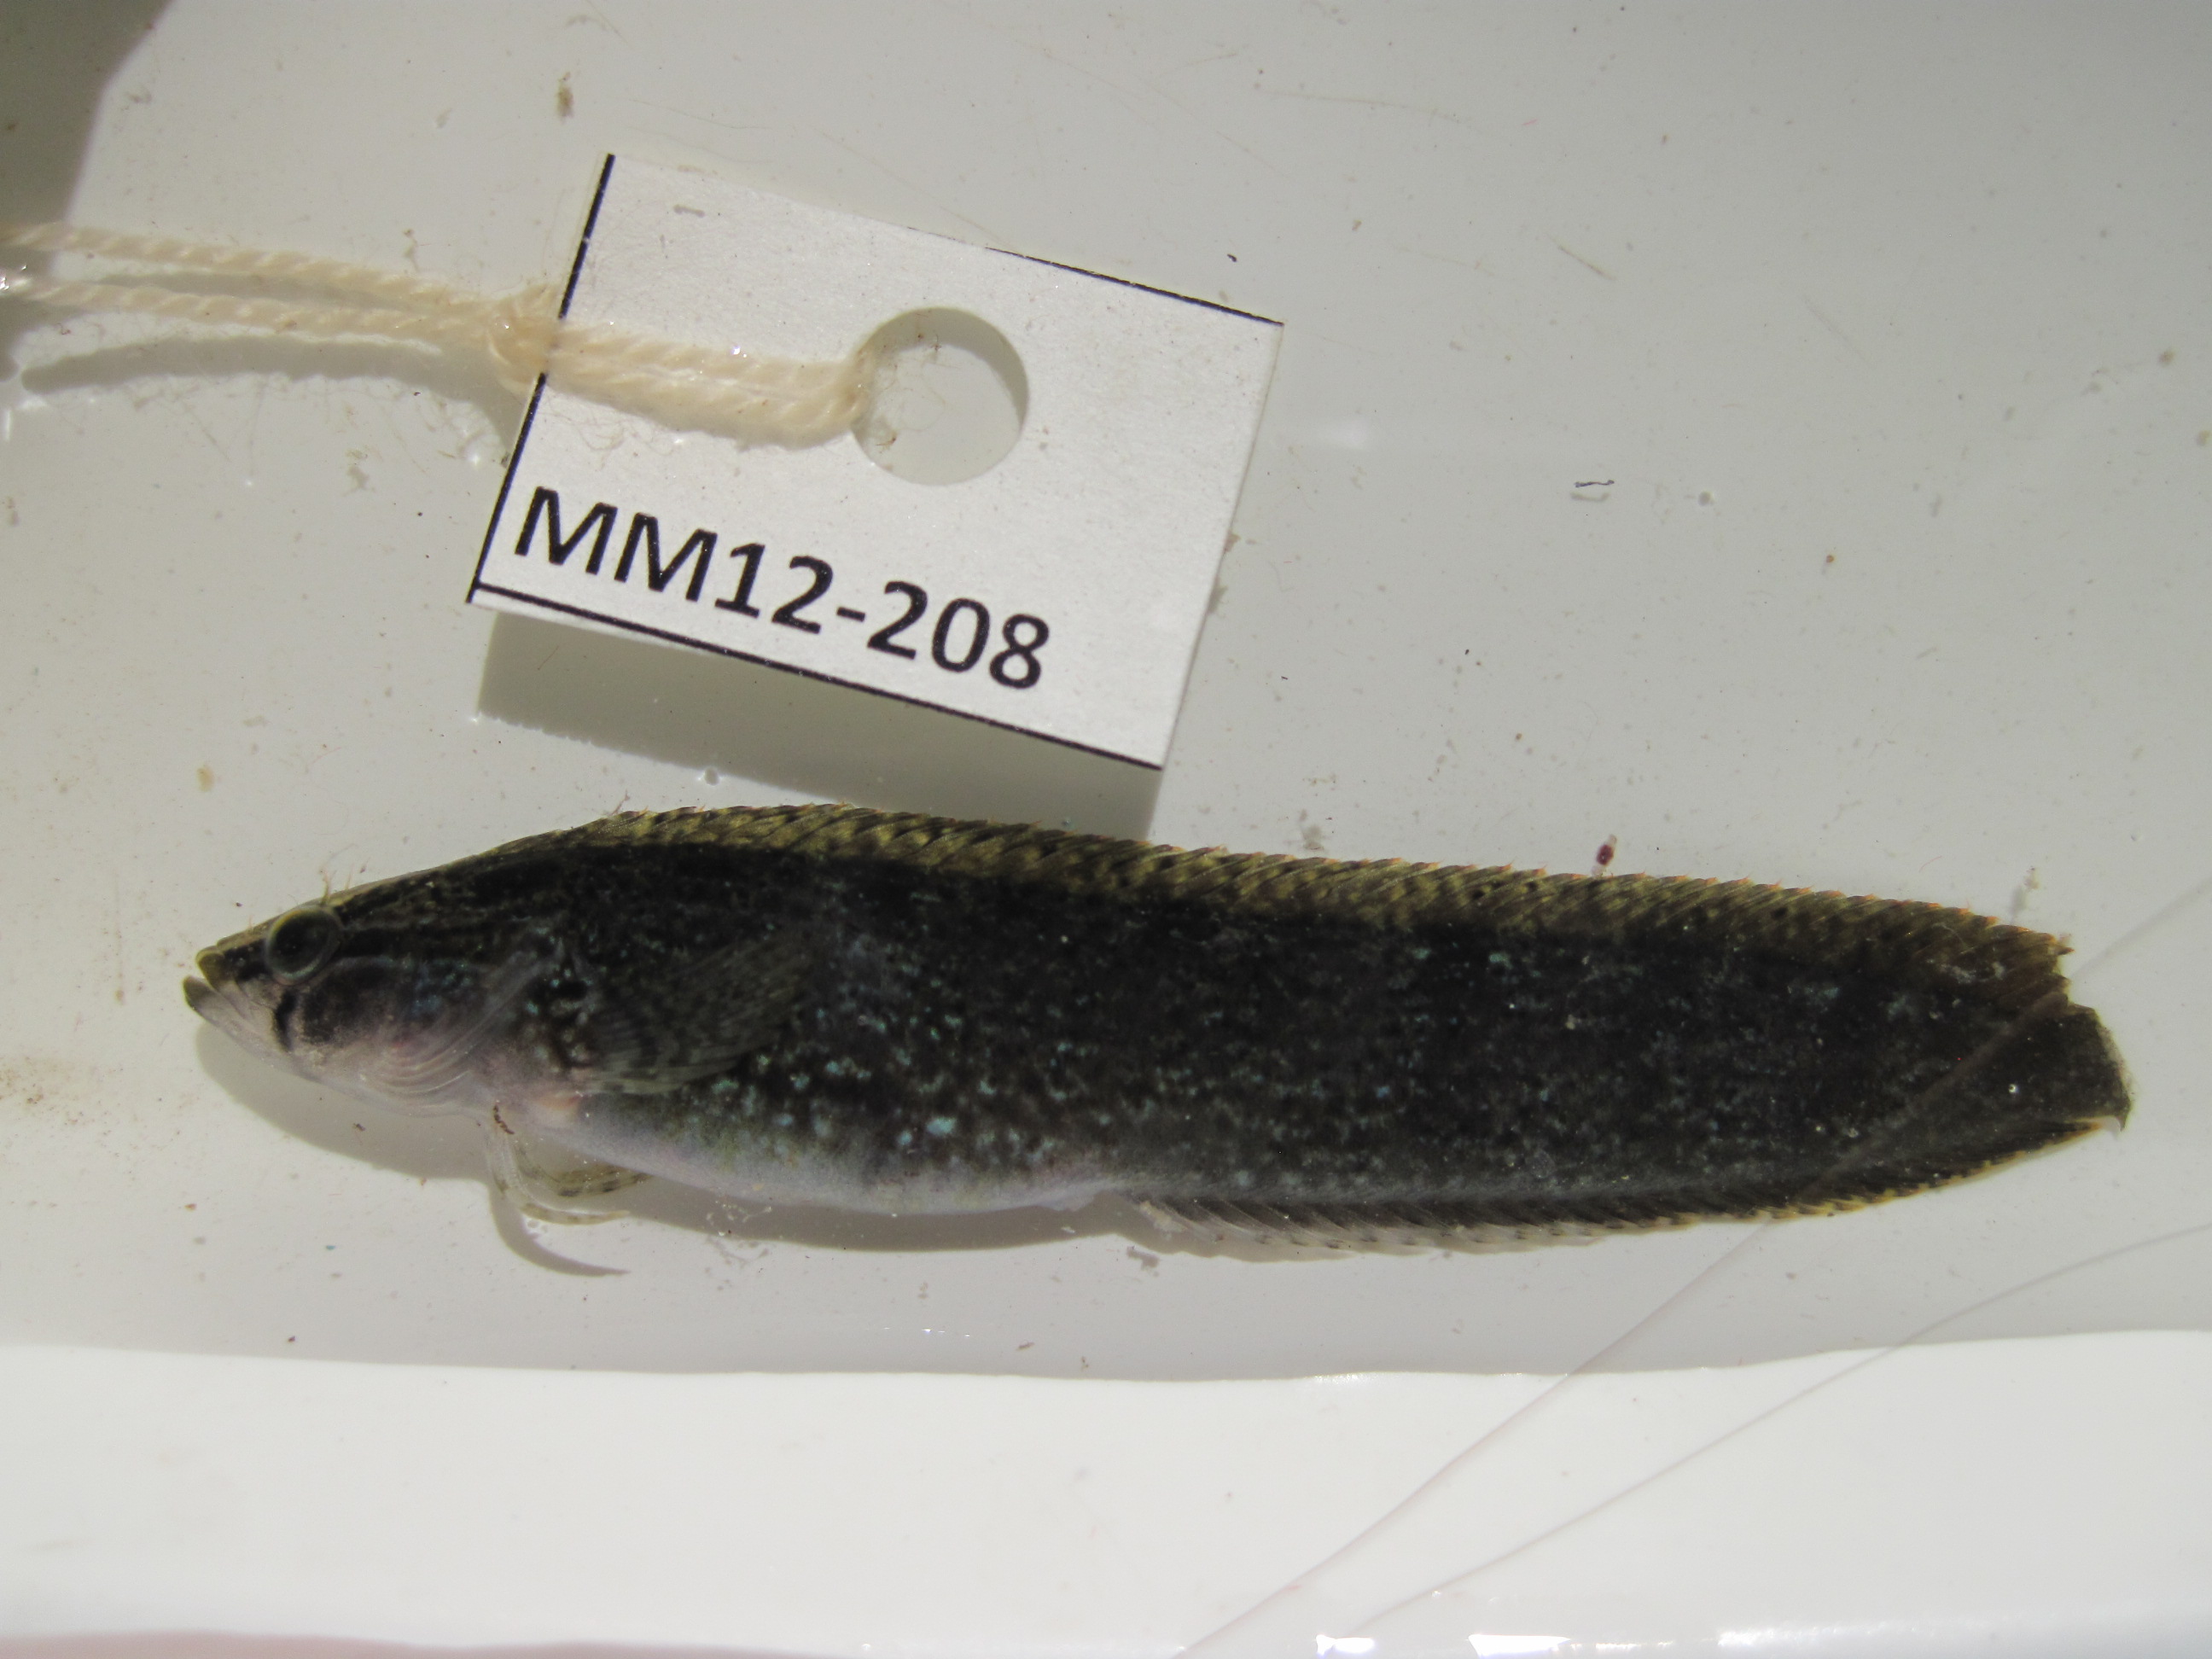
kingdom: Animalia
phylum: Chordata
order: Perciformes
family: Clinidae
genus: Climacoporus
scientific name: Climacoporus
